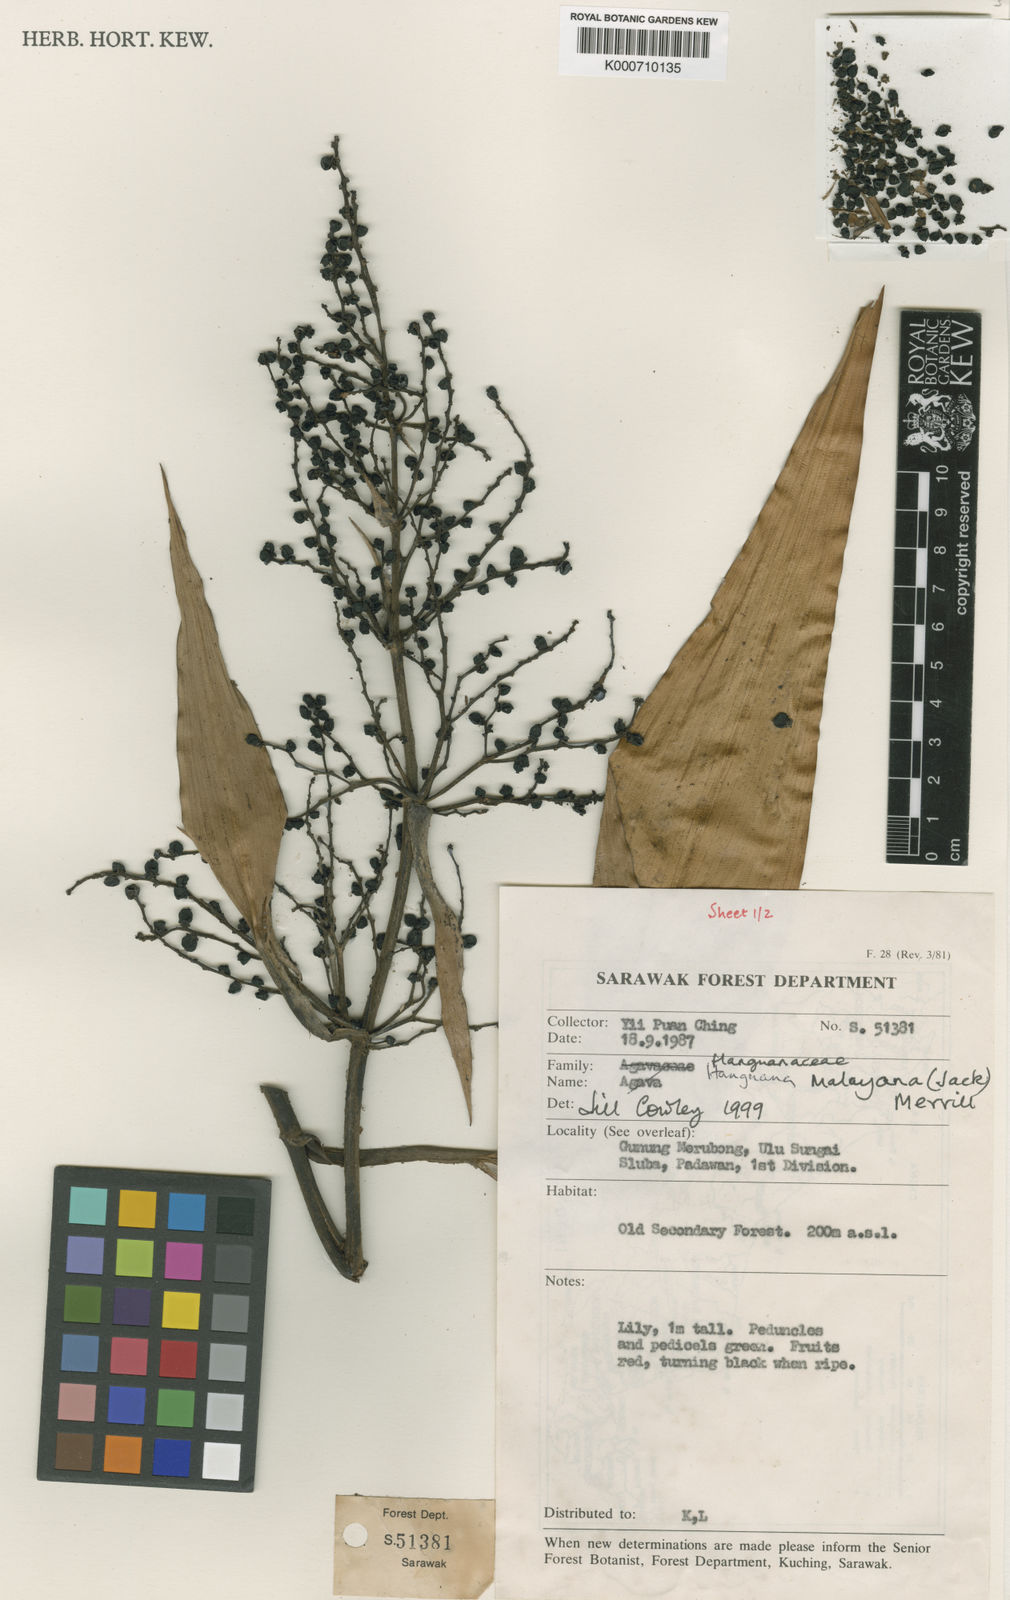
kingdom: Plantae
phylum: Tracheophyta
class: Liliopsida
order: Commelinales
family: Hanguanaceae
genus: Hanguana
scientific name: Hanguana malayana
